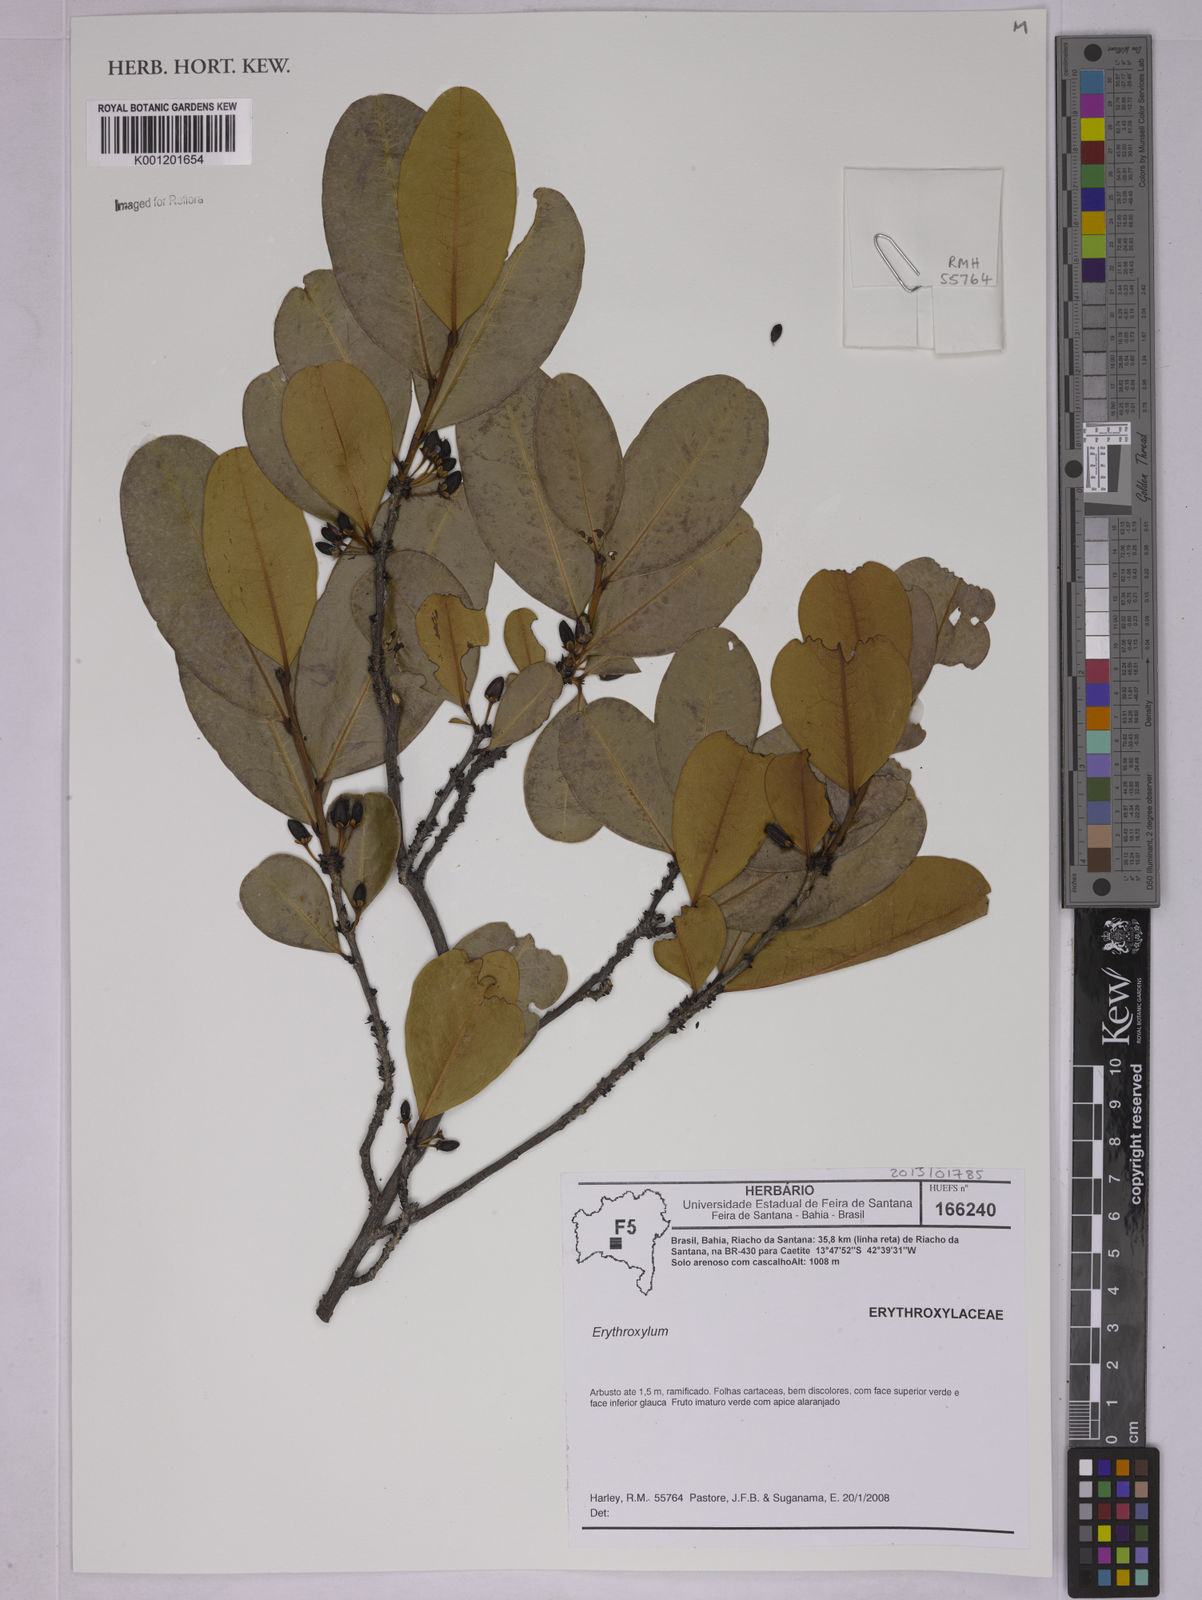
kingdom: Plantae
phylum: Tracheophyta
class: Magnoliopsida
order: Malpighiales
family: Erythroxylaceae
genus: Erythroxylum
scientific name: Erythroxylum
